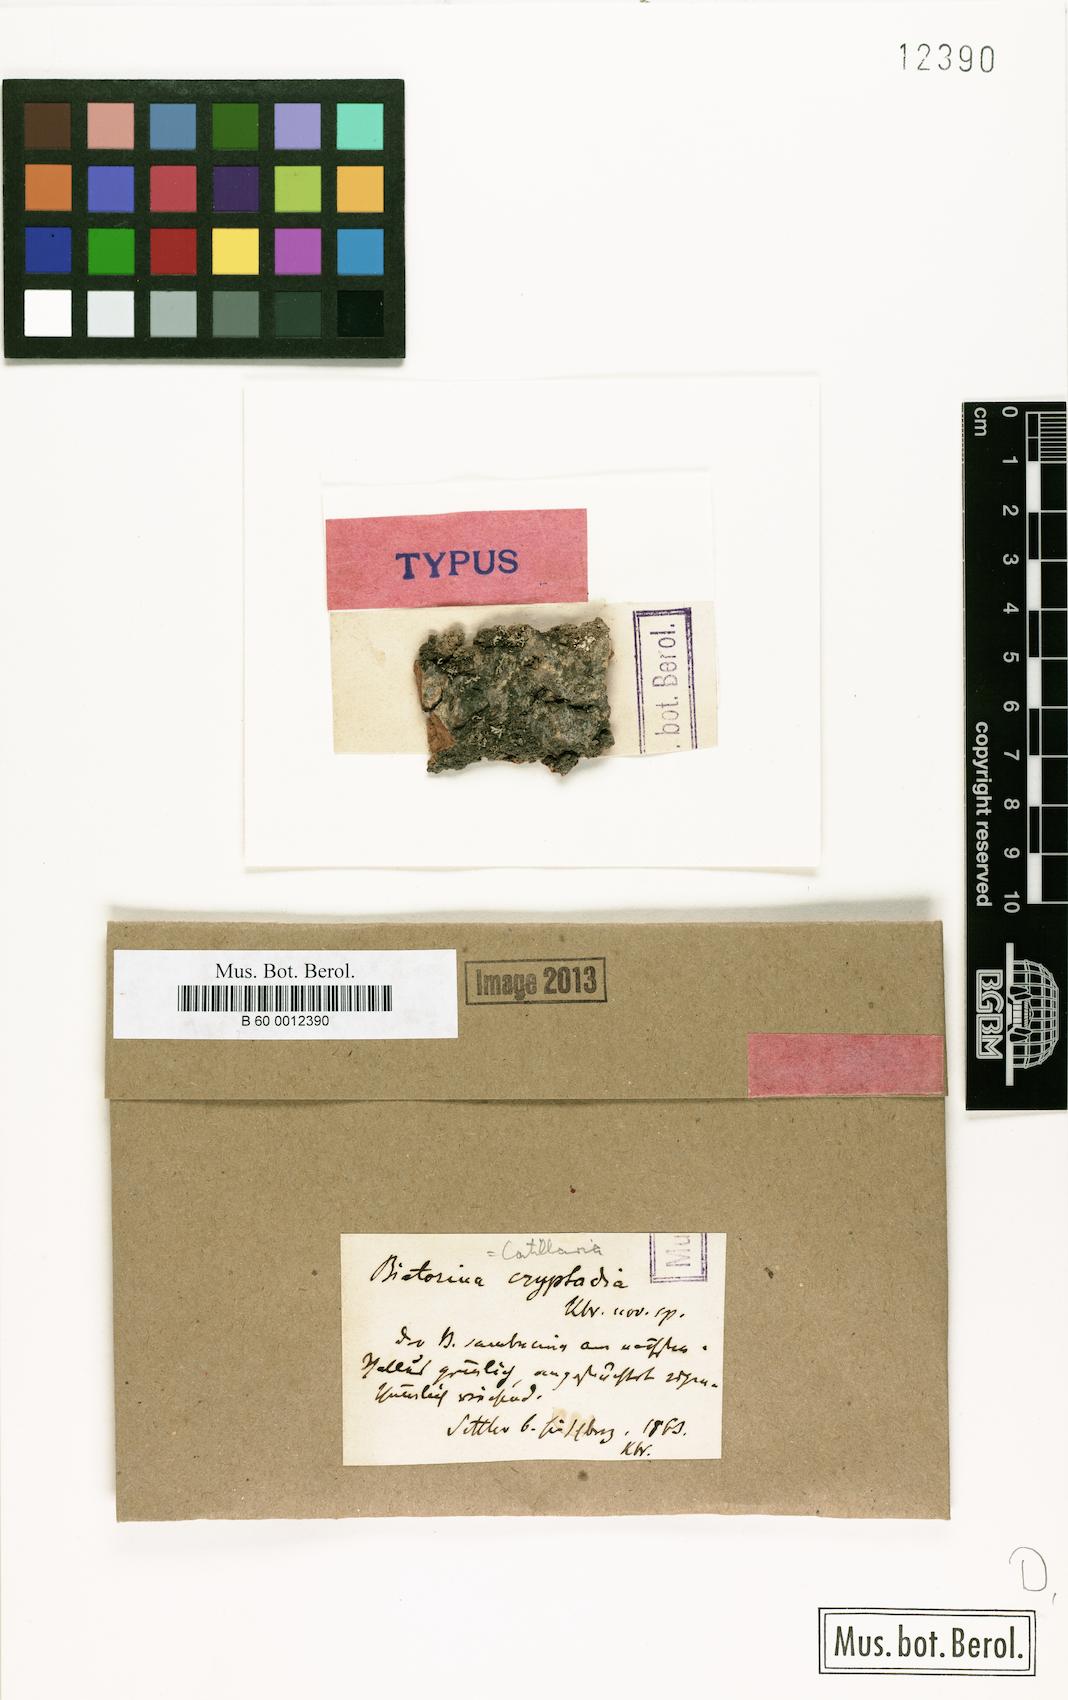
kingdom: Fungi
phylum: Ascomycota
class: Lecanoromycetes
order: Lecanorales
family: Catillariaceae
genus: Catillaria
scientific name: Catillaria
